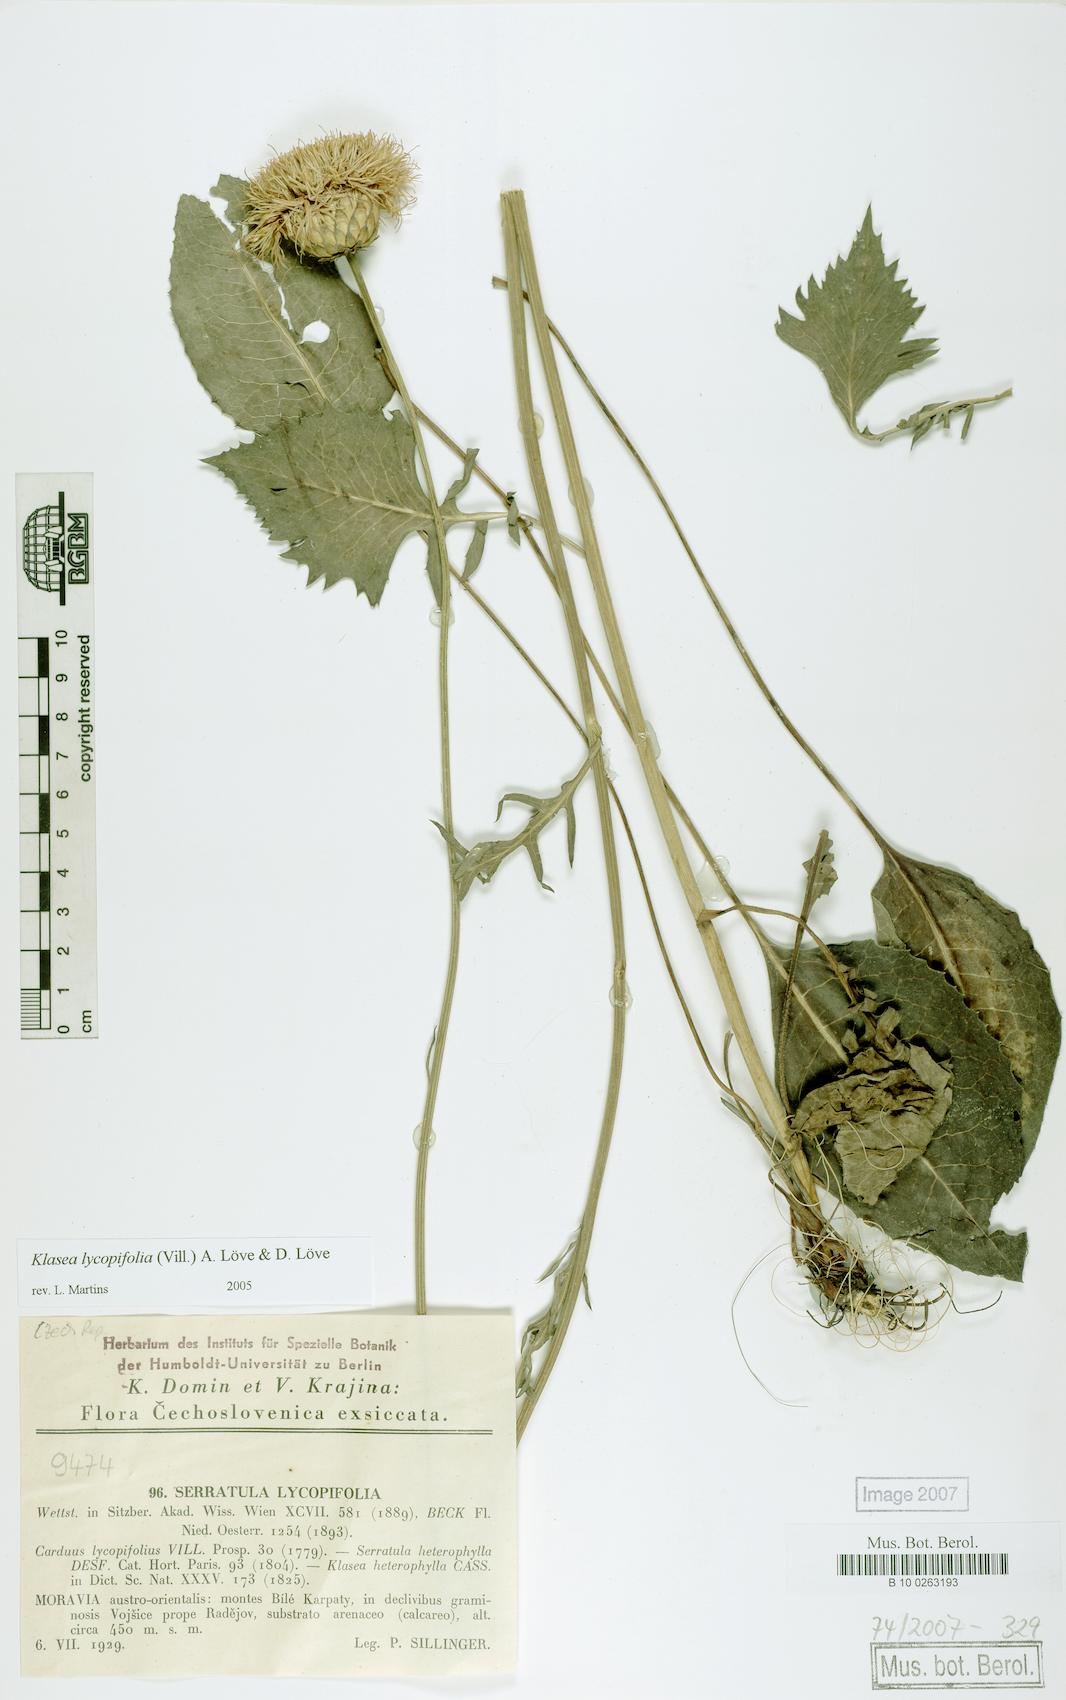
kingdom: Plantae
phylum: Tracheophyta
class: Magnoliopsida
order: Asterales
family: Asteraceae
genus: Klasea
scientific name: Klasea lycopifolia
